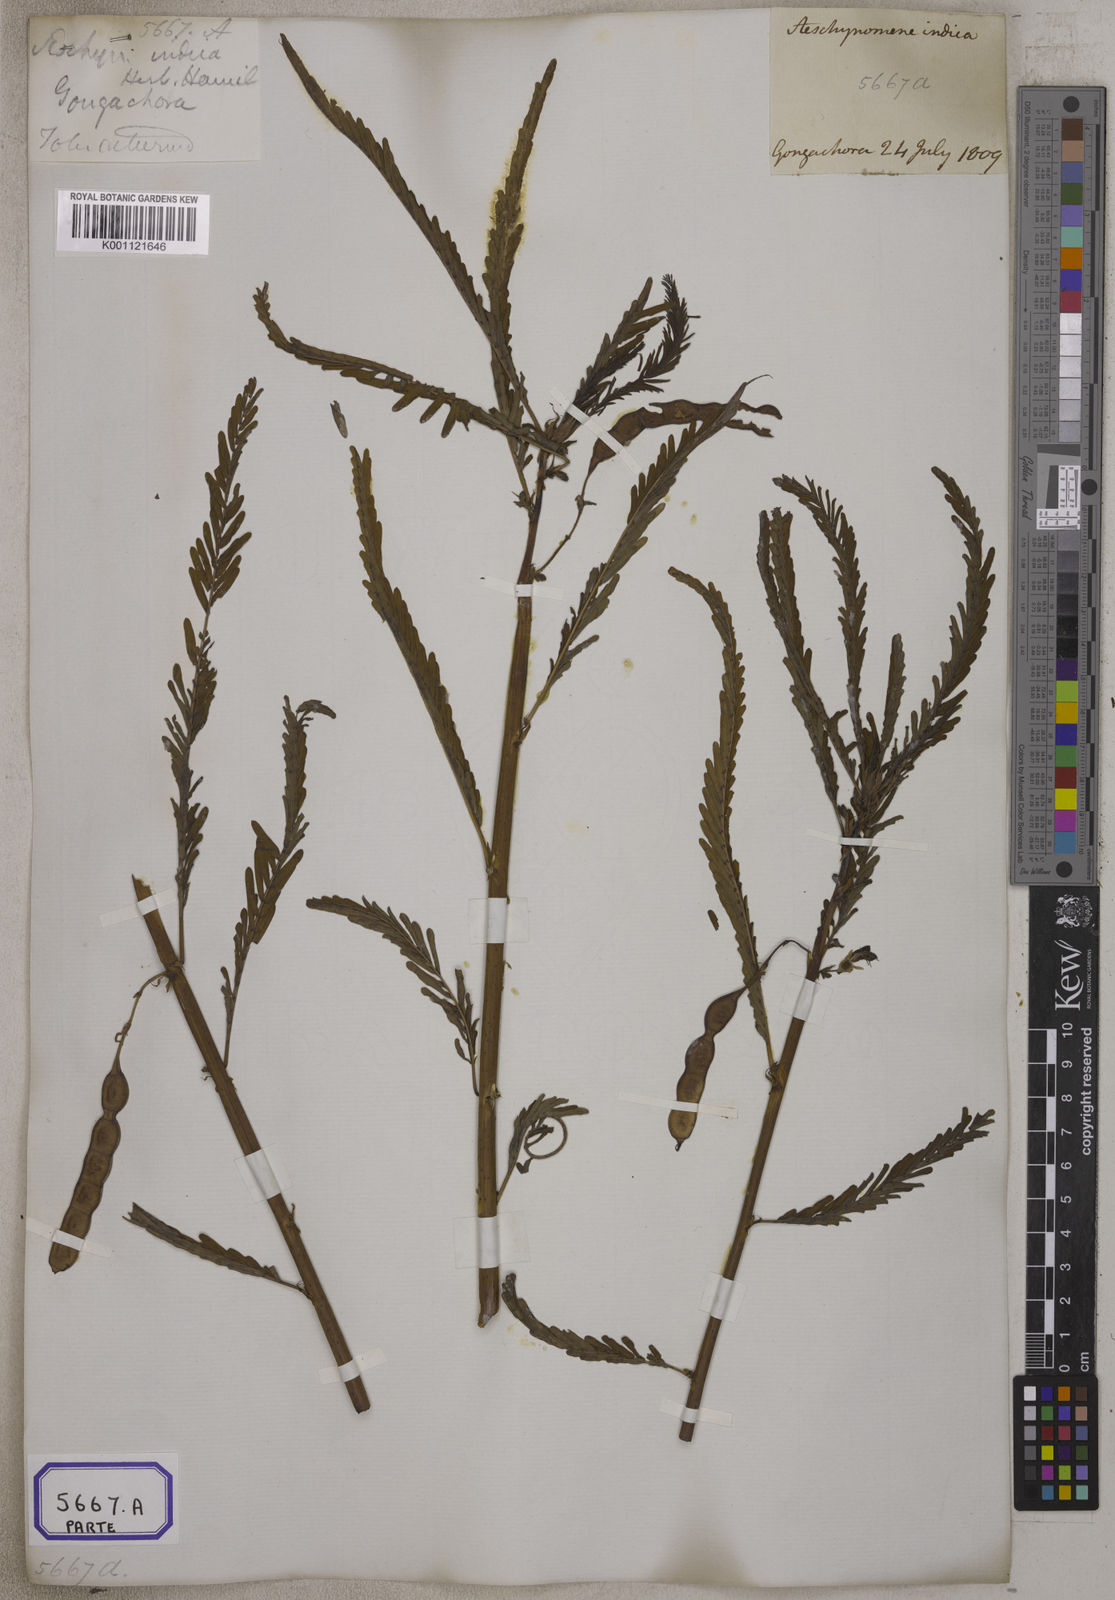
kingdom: Plantae
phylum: Tracheophyta
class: Magnoliopsida
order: Fabales
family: Fabaceae
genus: Aeschynomene
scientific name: Aeschynomene aspera
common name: Pith plant
